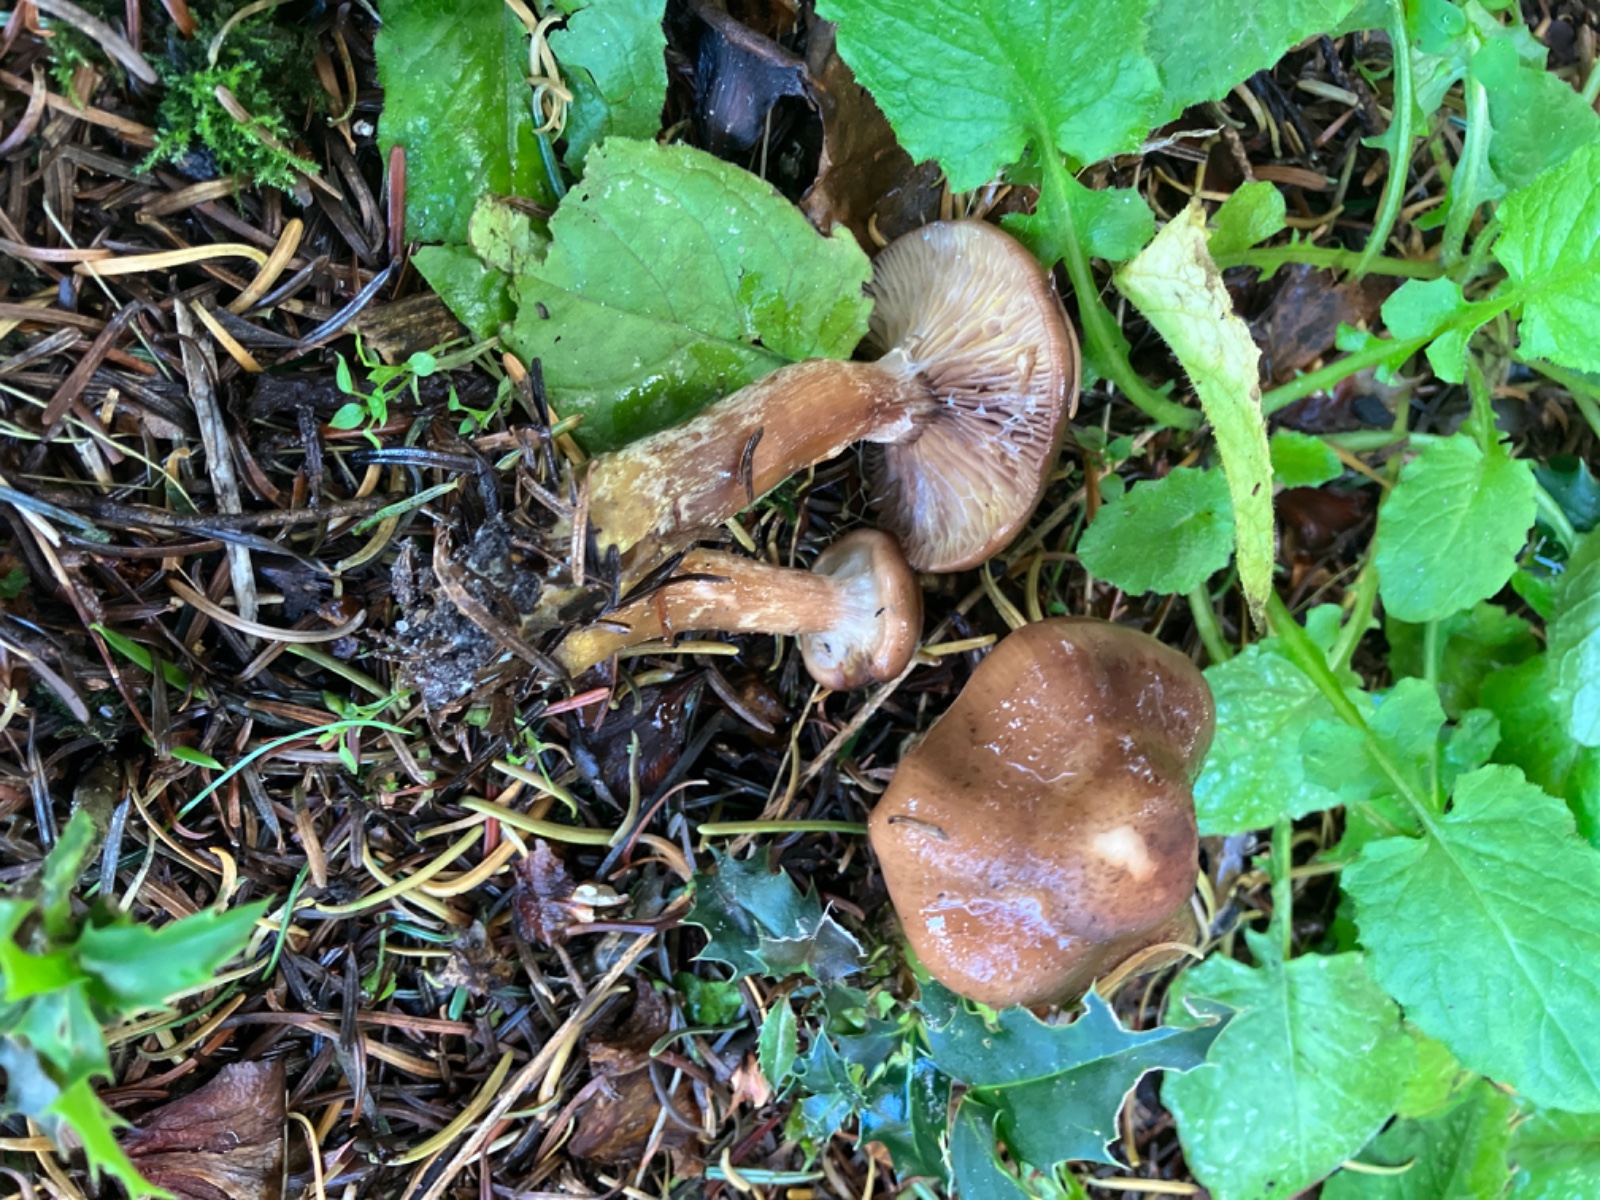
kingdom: Fungi
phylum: Basidiomycota
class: Agaricomycetes
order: Agaricales
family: Physalacriaceae
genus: Armillaria
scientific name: Armillaria
